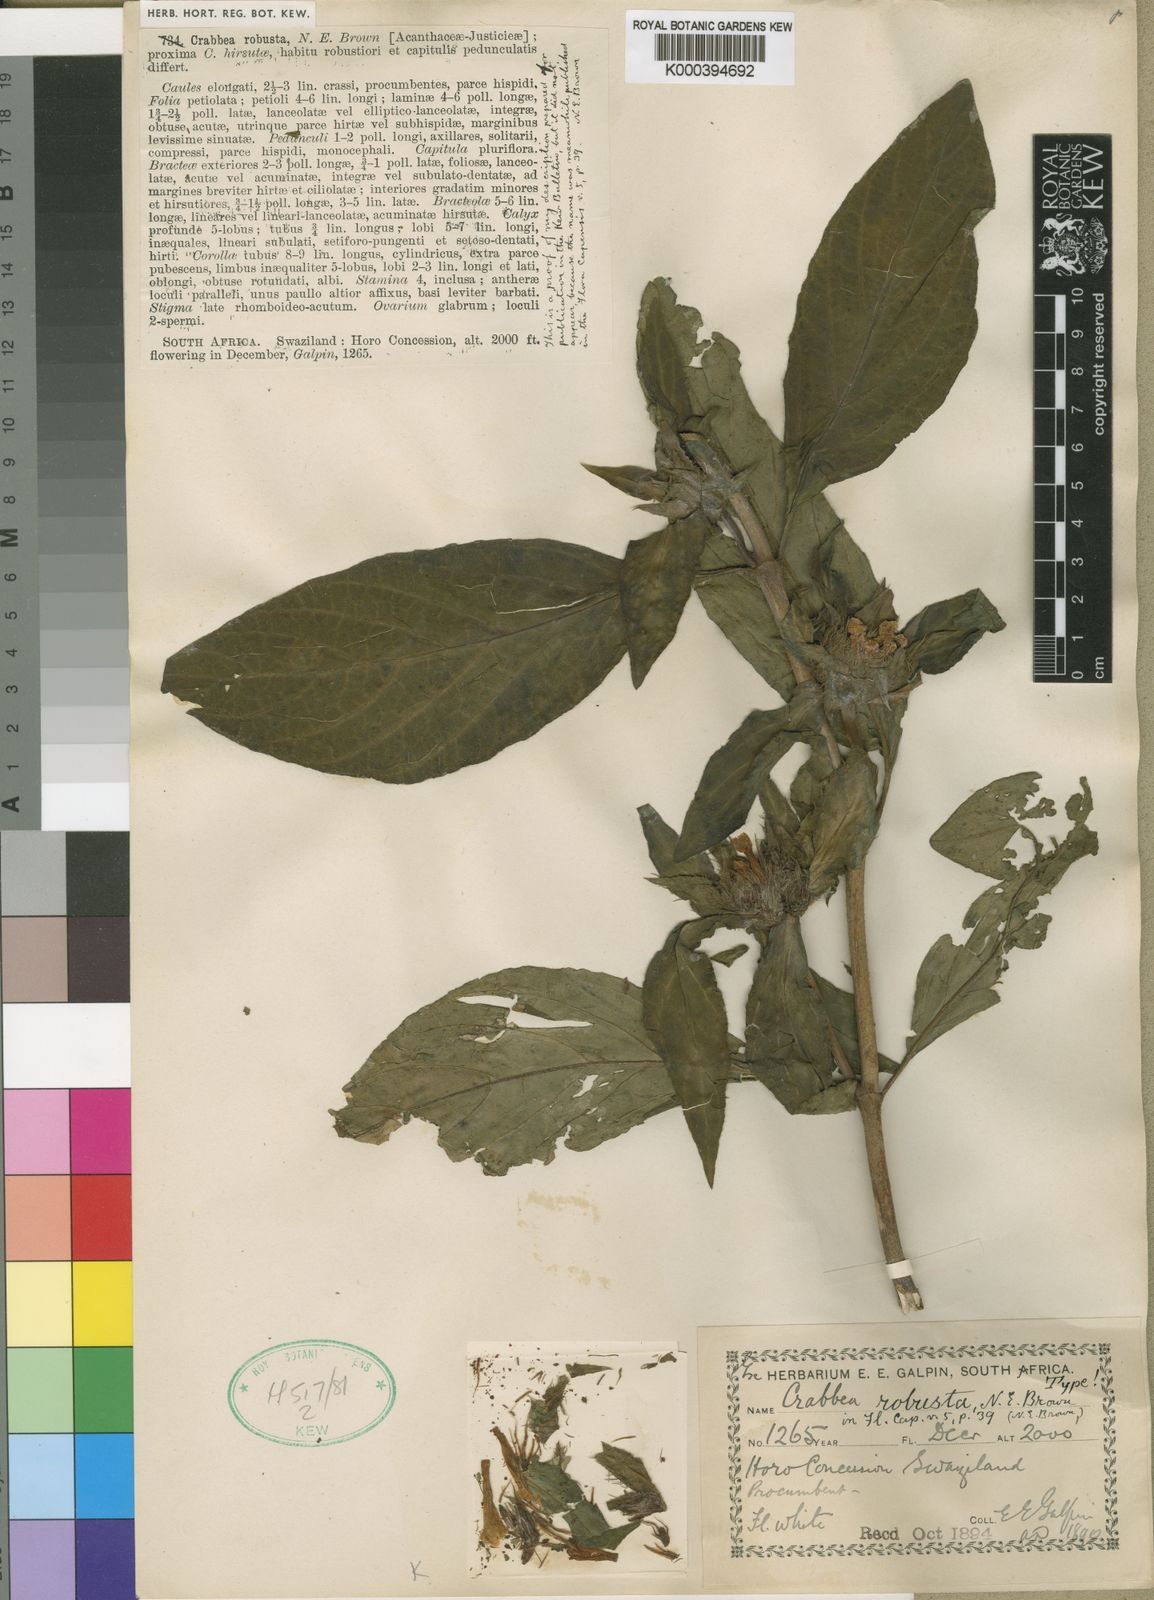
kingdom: Plantae
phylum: Tracheophyta
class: Magnoliopsida
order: Lamiales
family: Acanthaceae
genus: Crabbea
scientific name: Crabbea cirsioides
